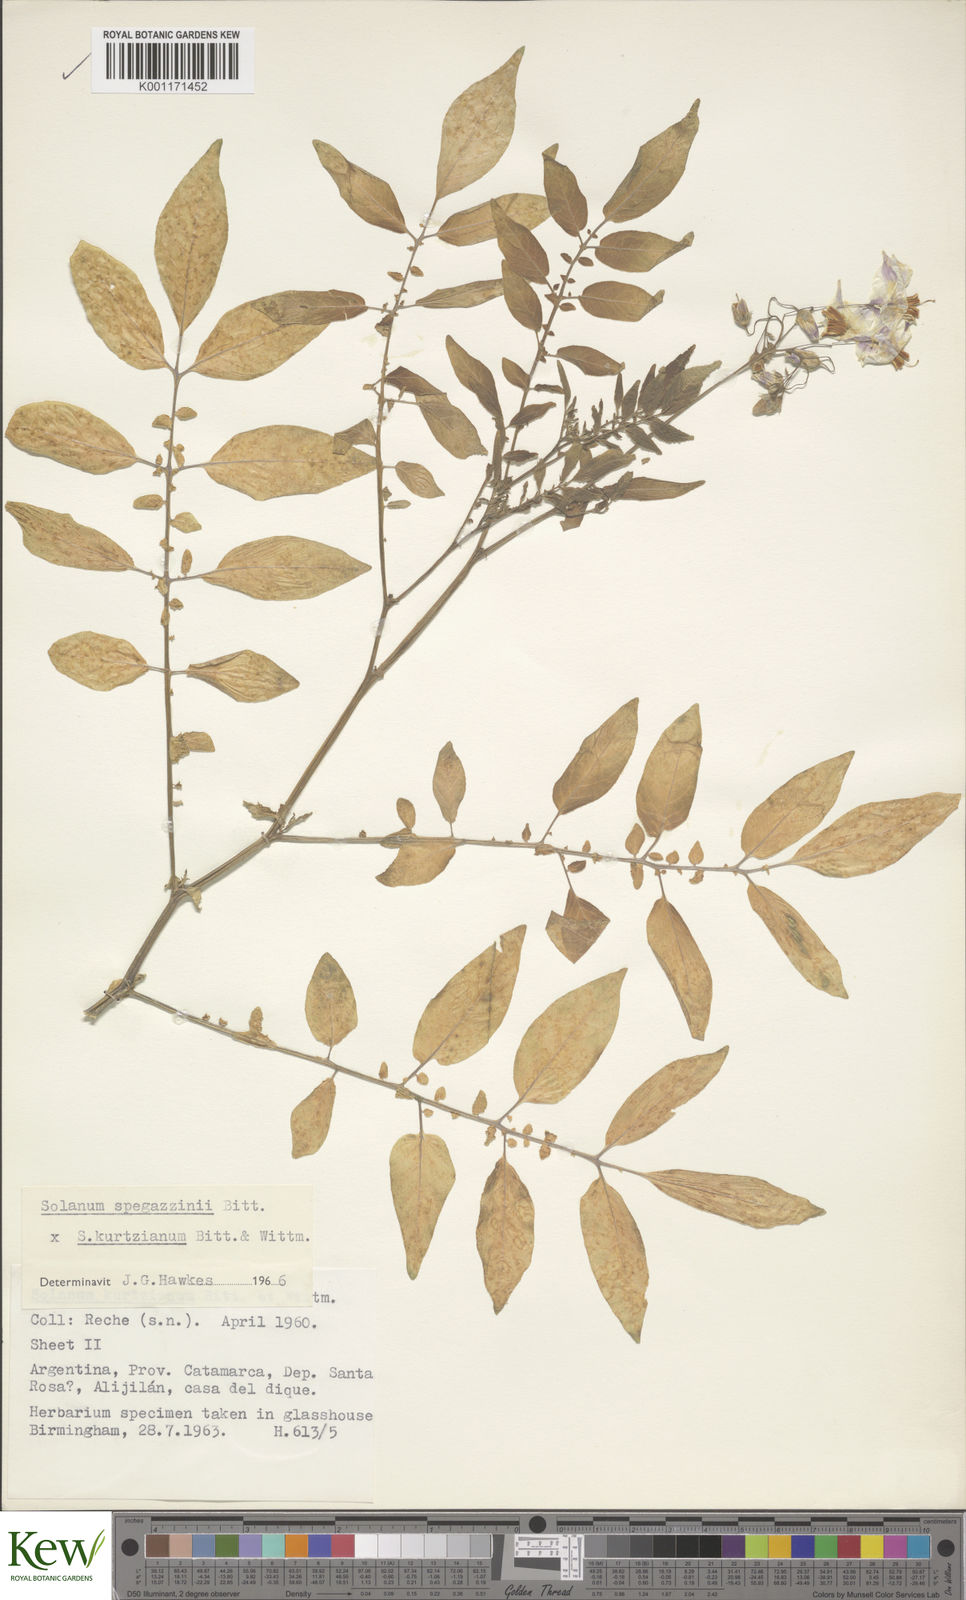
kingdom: Plantae
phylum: Tracheophyta
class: Magnoliopsida
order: Solanales
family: Solanaceae
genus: Solanum
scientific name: Solanum brevicaule
